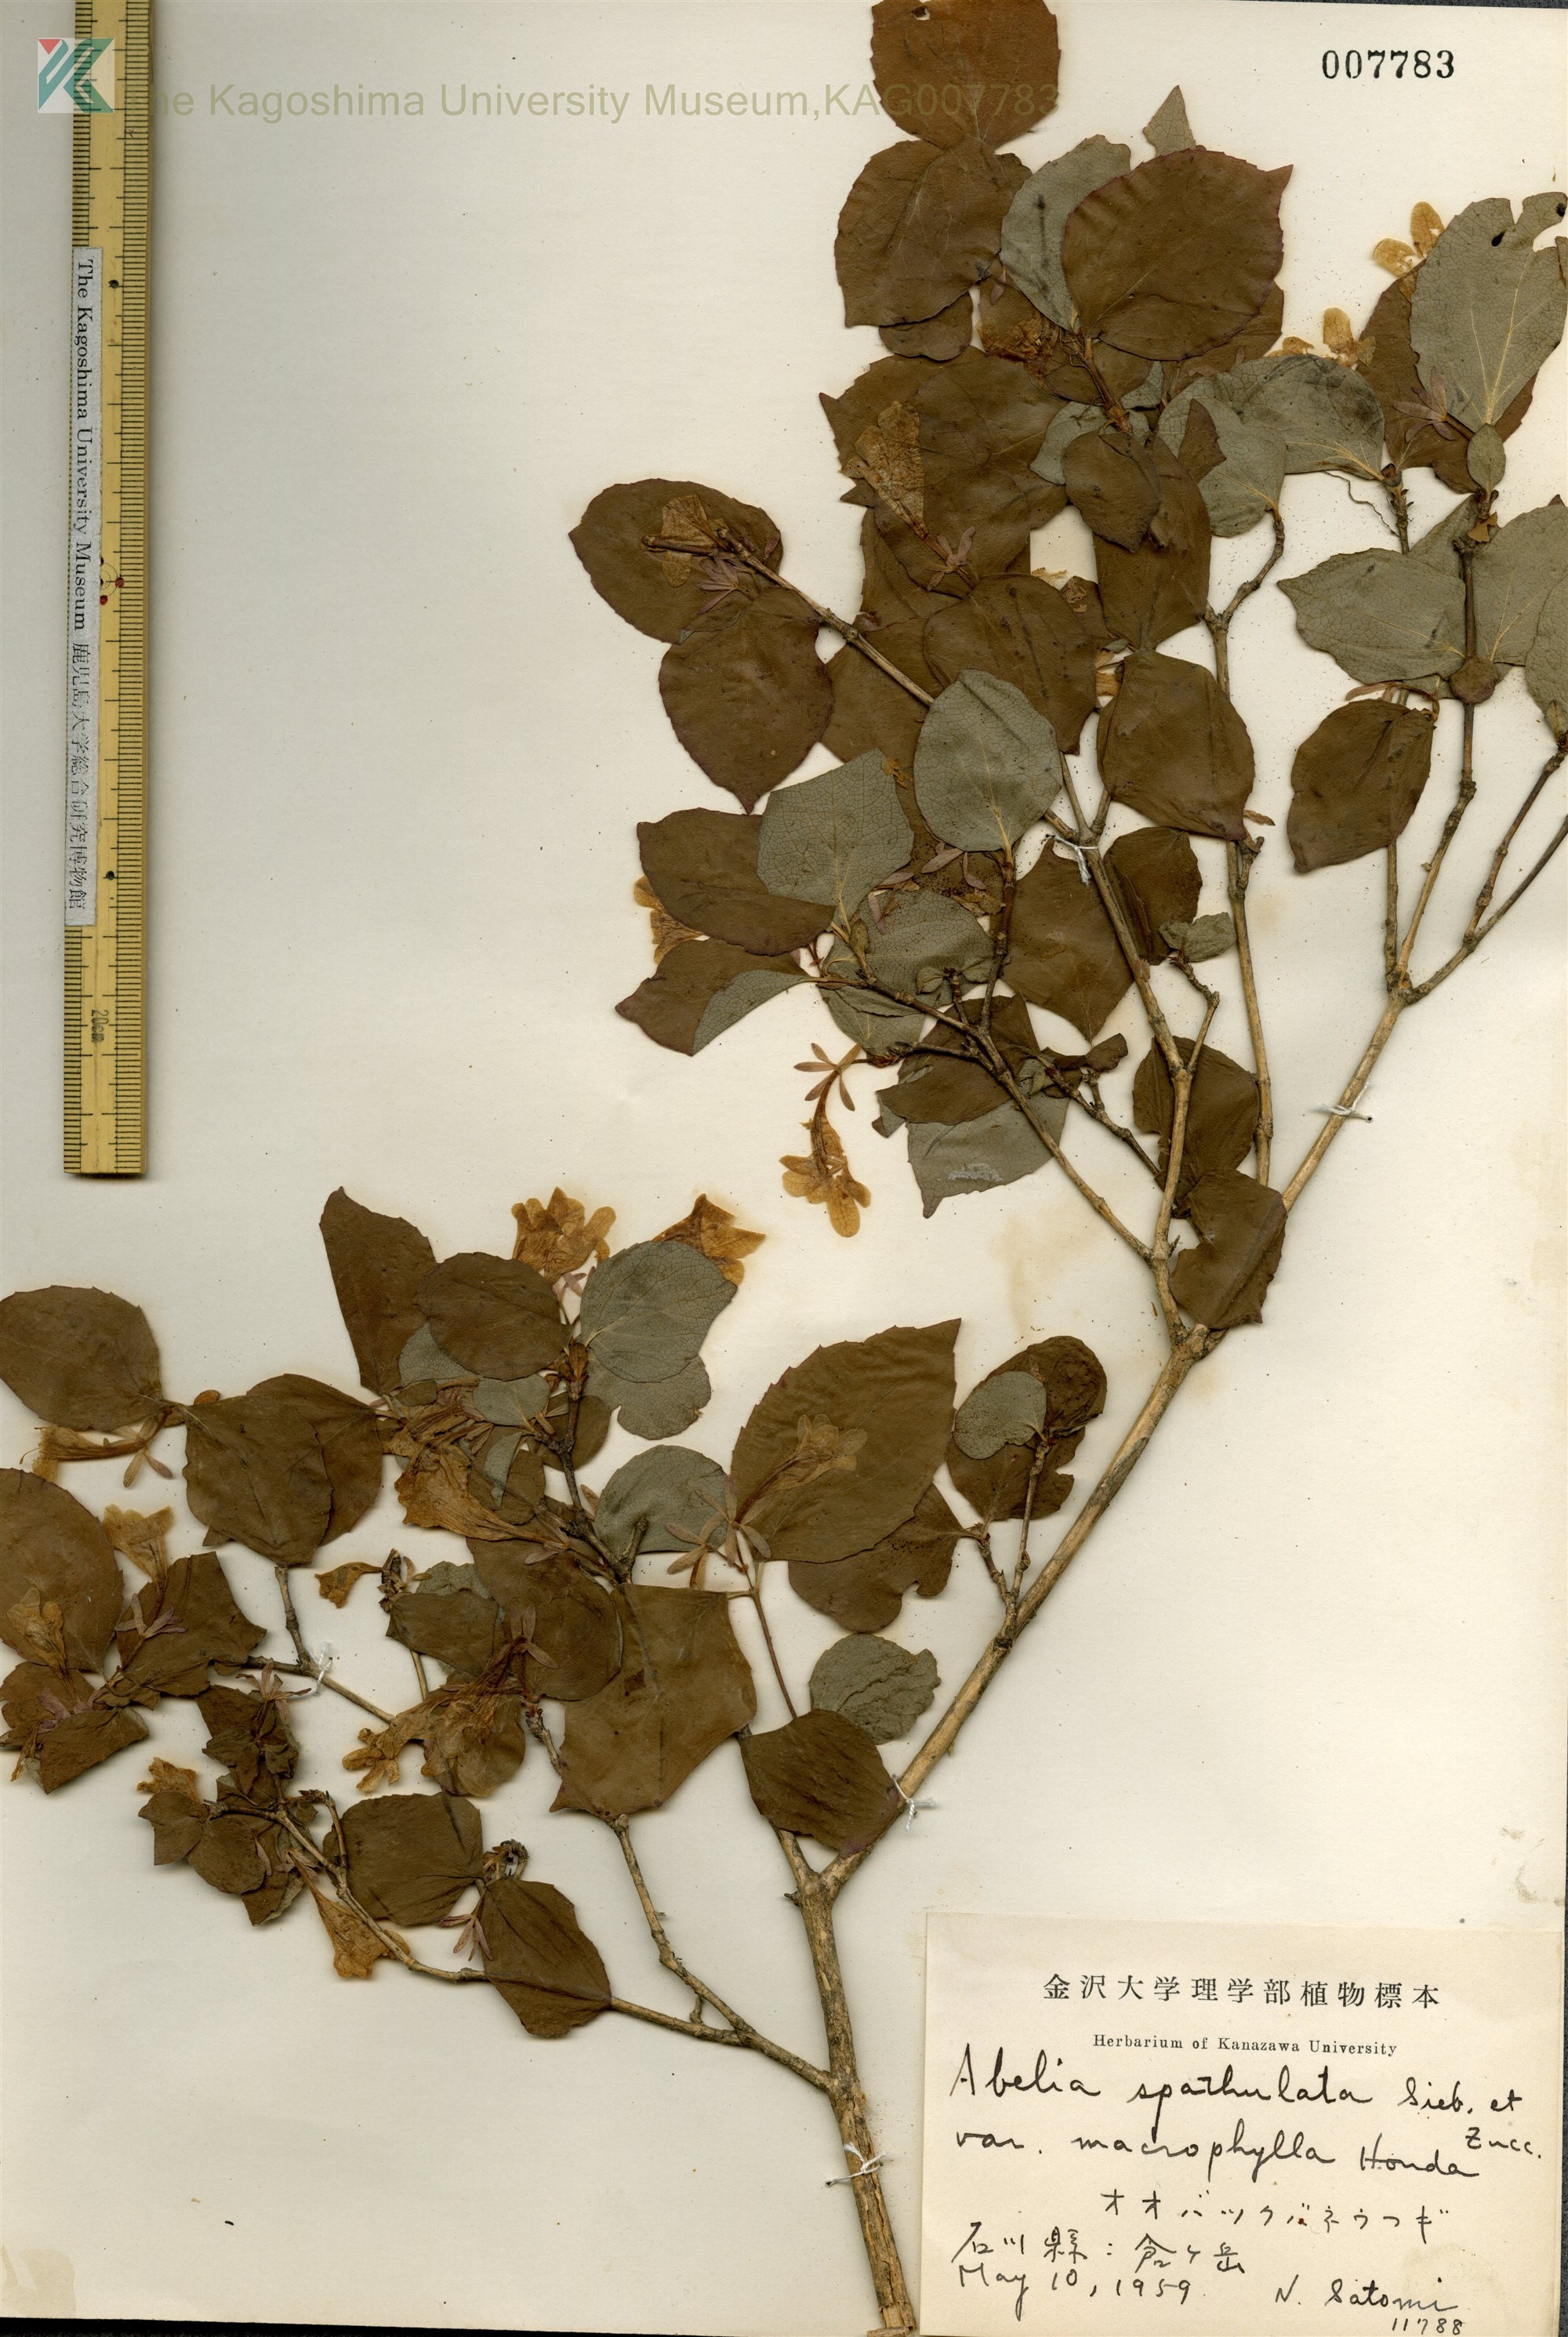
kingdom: Plantae
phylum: Tracheophyta
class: Magnoliopsida
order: Dipsacales
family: Caprifoliaceae
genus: Diabelia
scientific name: Diabelia spathulata
